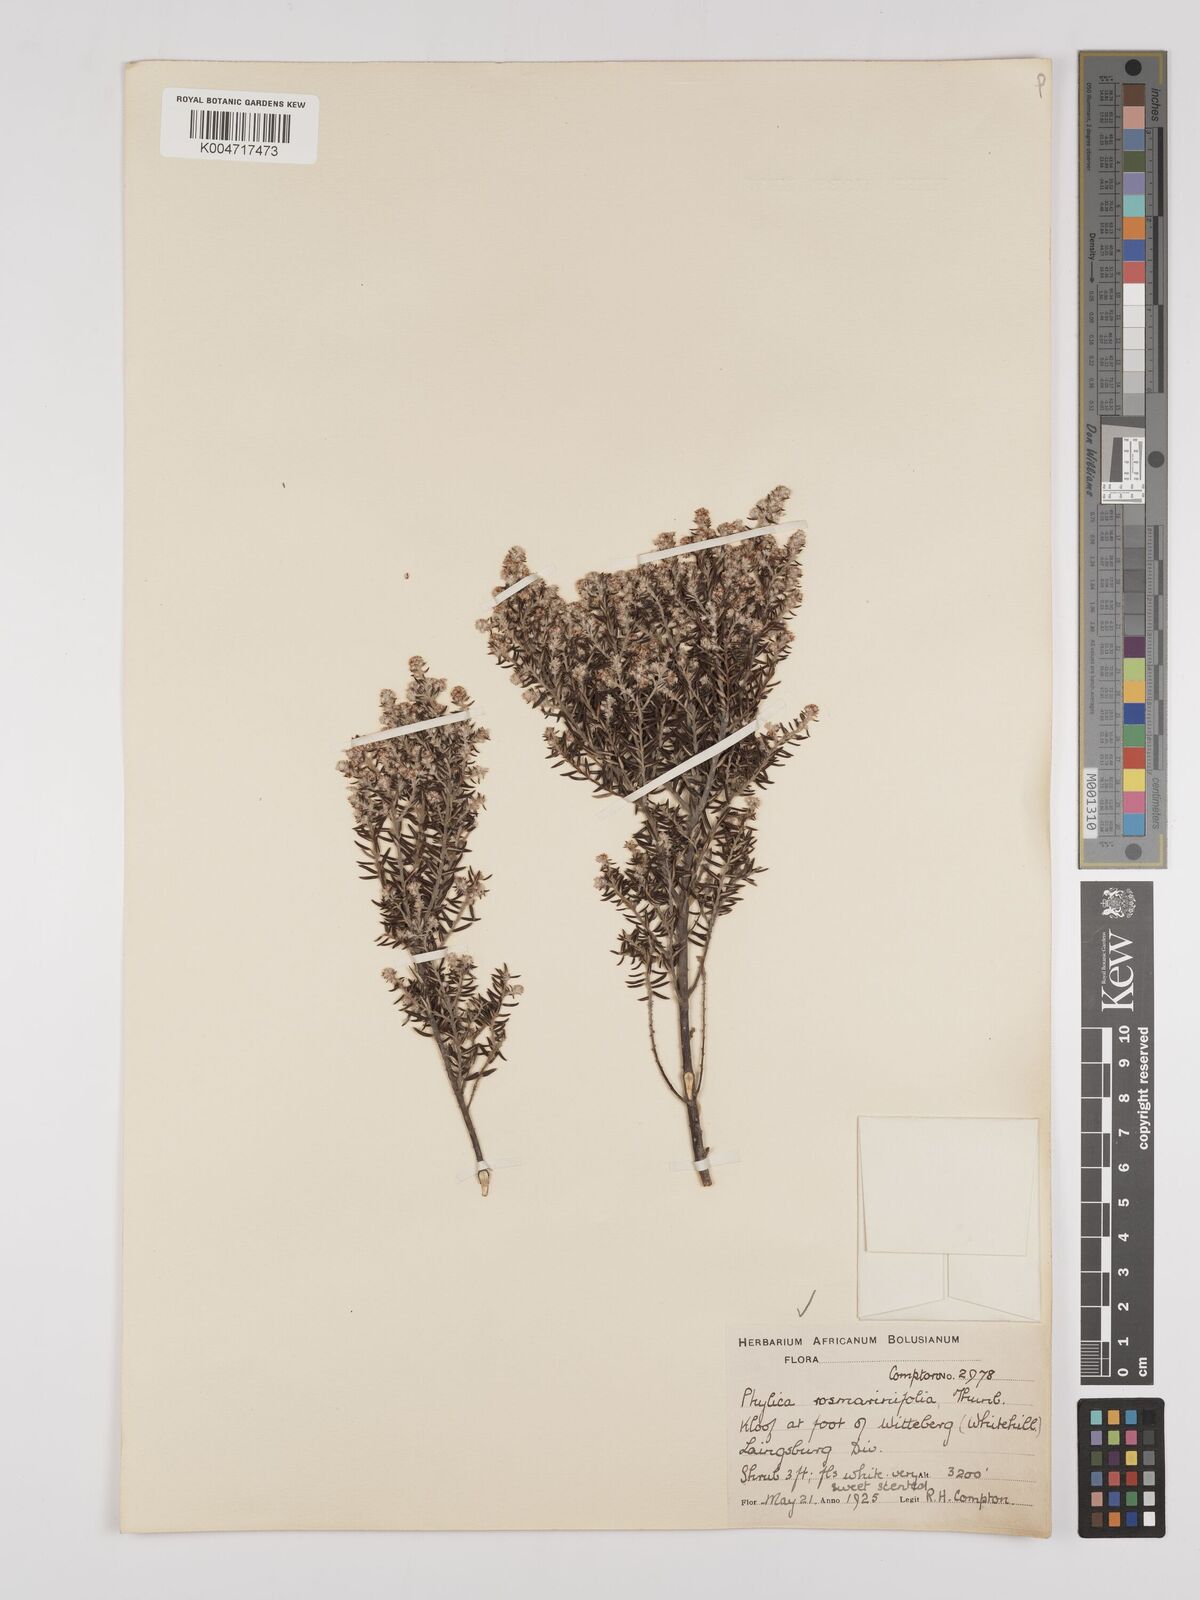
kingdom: Plantae
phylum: Tracheophyta
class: Magnoliopsida
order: Rosales
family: Rhamnaceae
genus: Phylica
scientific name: Phylica paniculata
